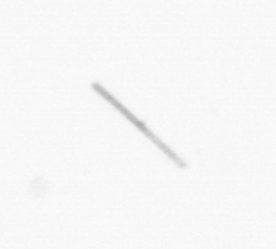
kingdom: Chromista
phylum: Ochrophyta
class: Bacillariophyceae
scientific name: Bacillariophyceae
